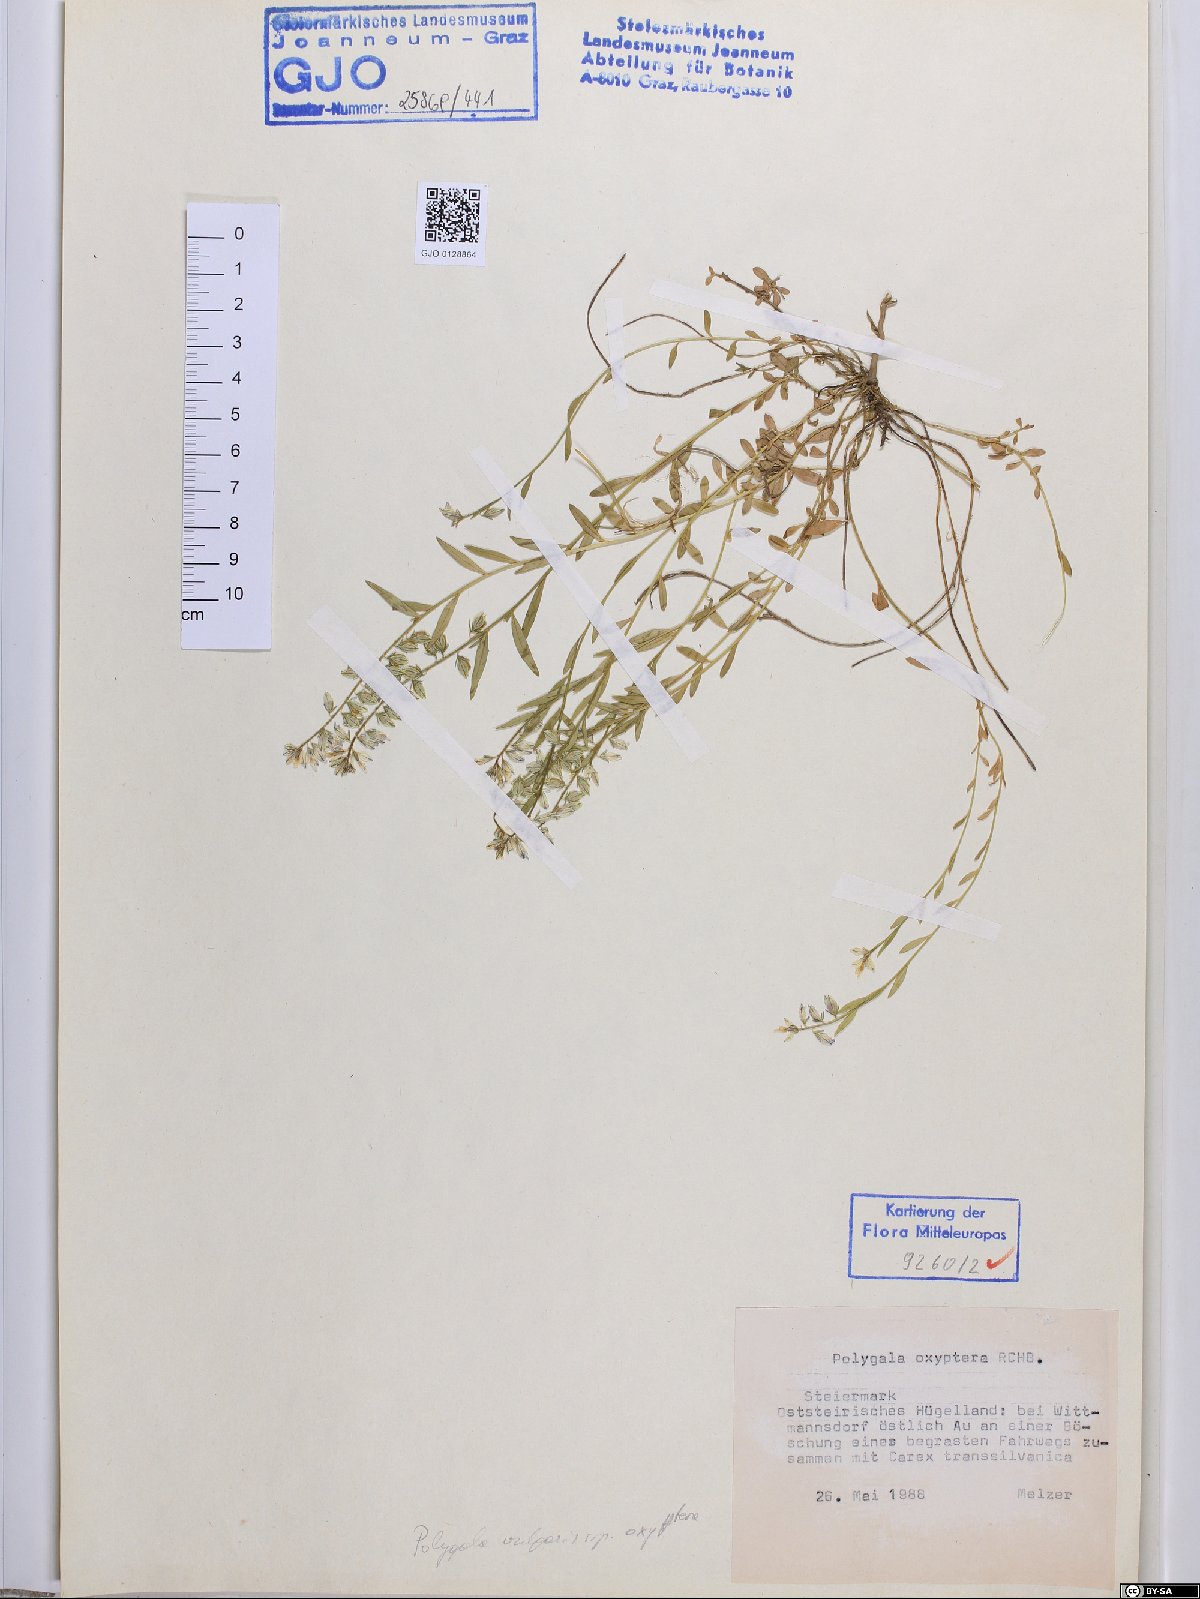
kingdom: Plantae
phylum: Tracheophyta
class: Magnoliopsida
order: Fabales
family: Polygalaceae
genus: Polygala
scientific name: Polygala vulgaris
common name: Common milkwort
